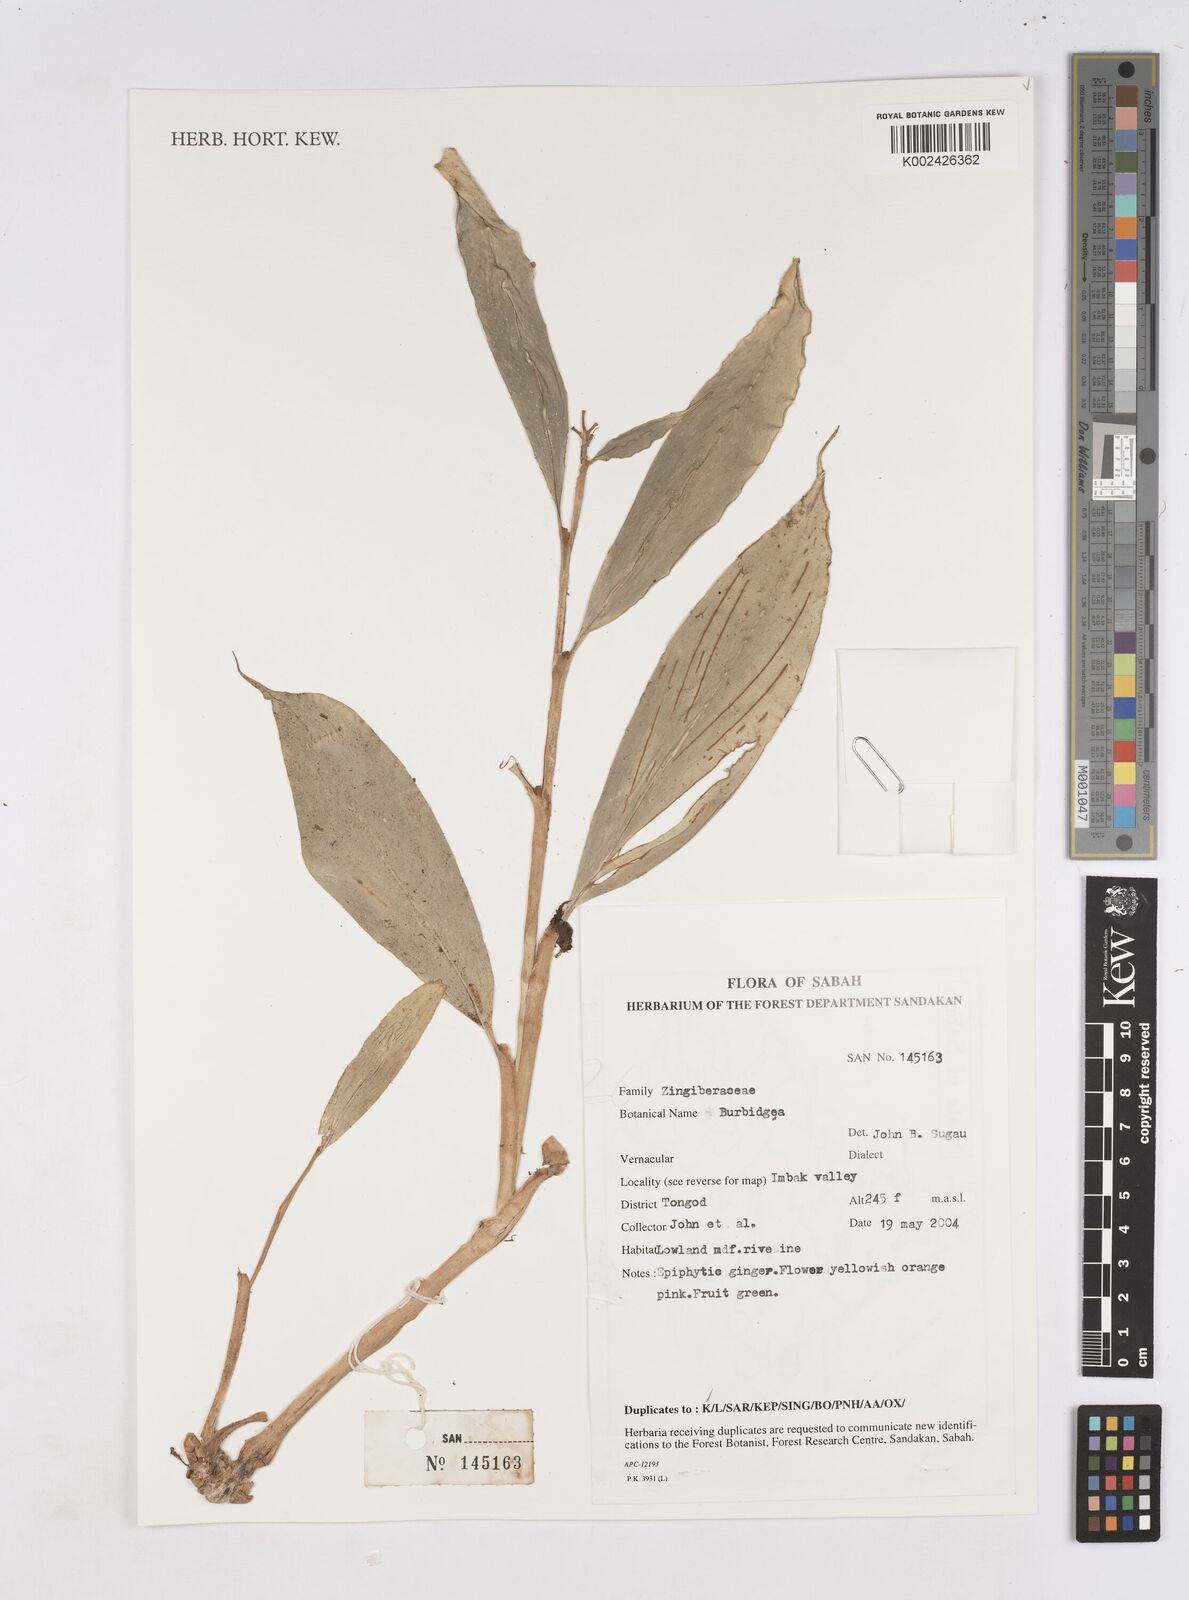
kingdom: Plantae
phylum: Tracheophyta
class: Liliopsida
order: Zingiberales
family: Zingiberaceae
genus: Burbidgea
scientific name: Burbidgea
